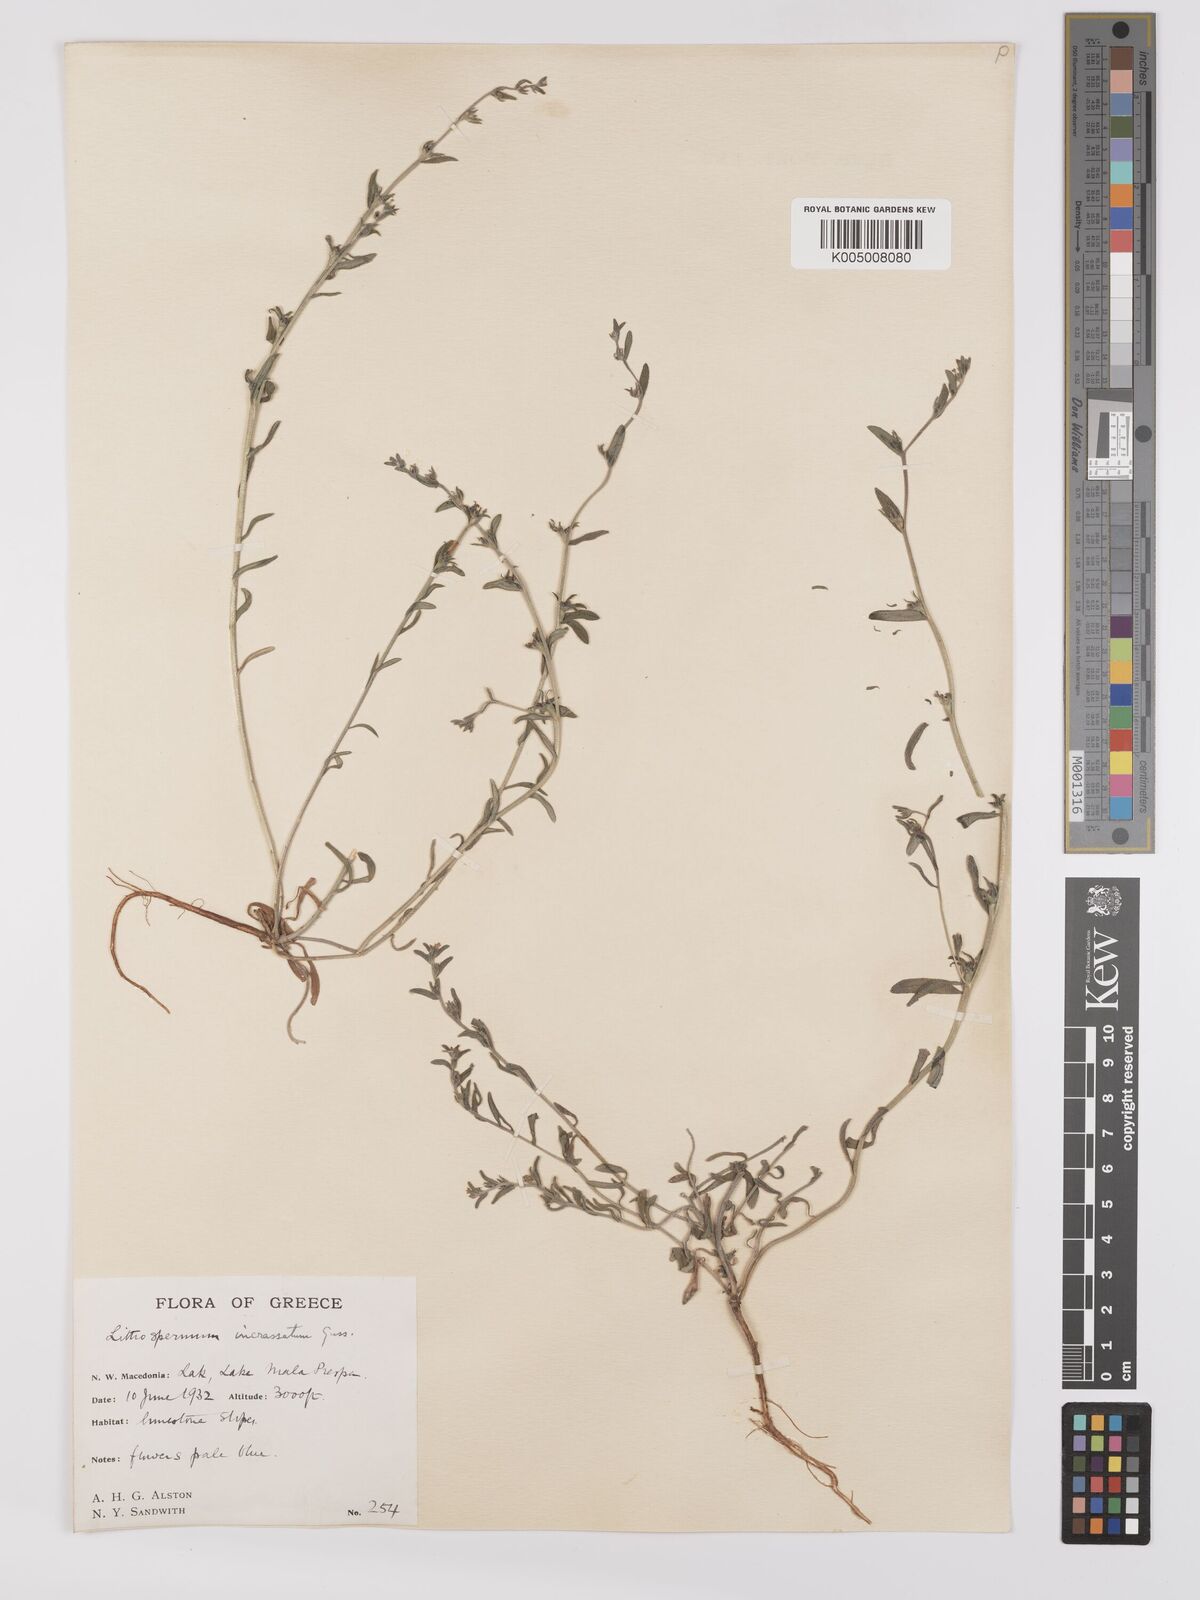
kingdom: Plantae
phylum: Tracheophyta
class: Magnoliopsida
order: Boraginales
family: Boraginaceae
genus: Buglossoides
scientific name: Buglossoides incrassata
